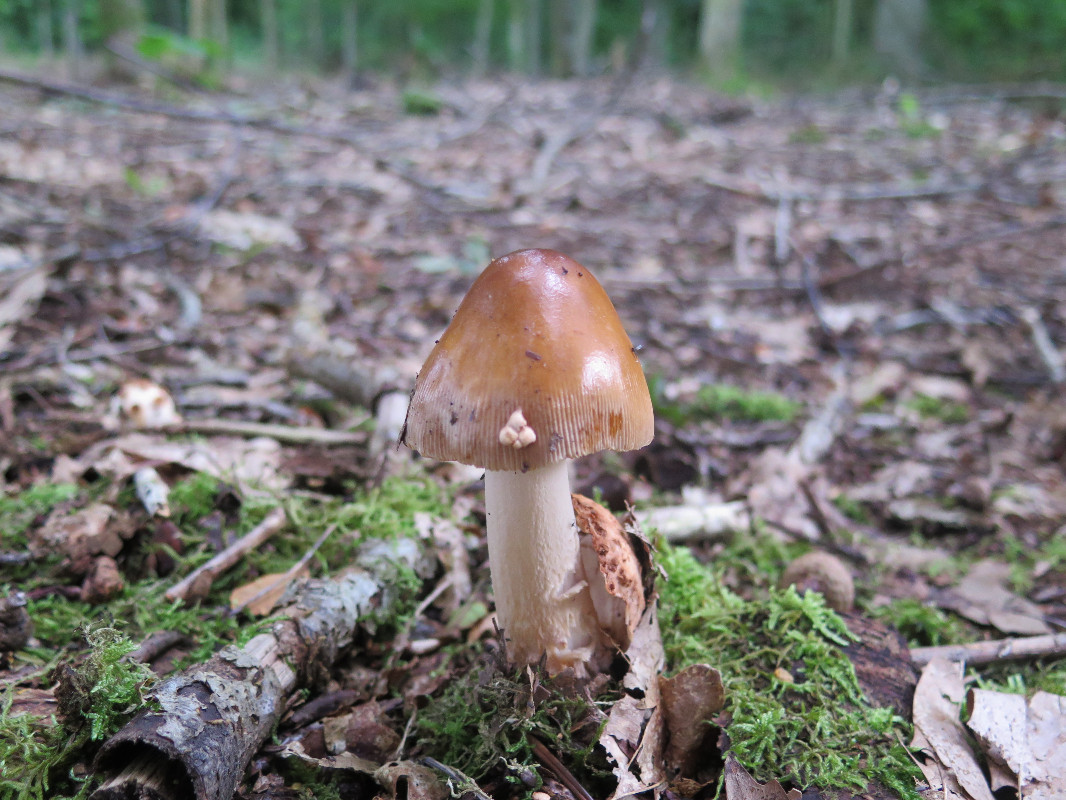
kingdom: Fungi
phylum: Basidiomycota
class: Agaricomycetes
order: Agaricales
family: Amanitaceae
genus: Amanita
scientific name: Amanita fulva
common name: brun kam-fluesvamp
